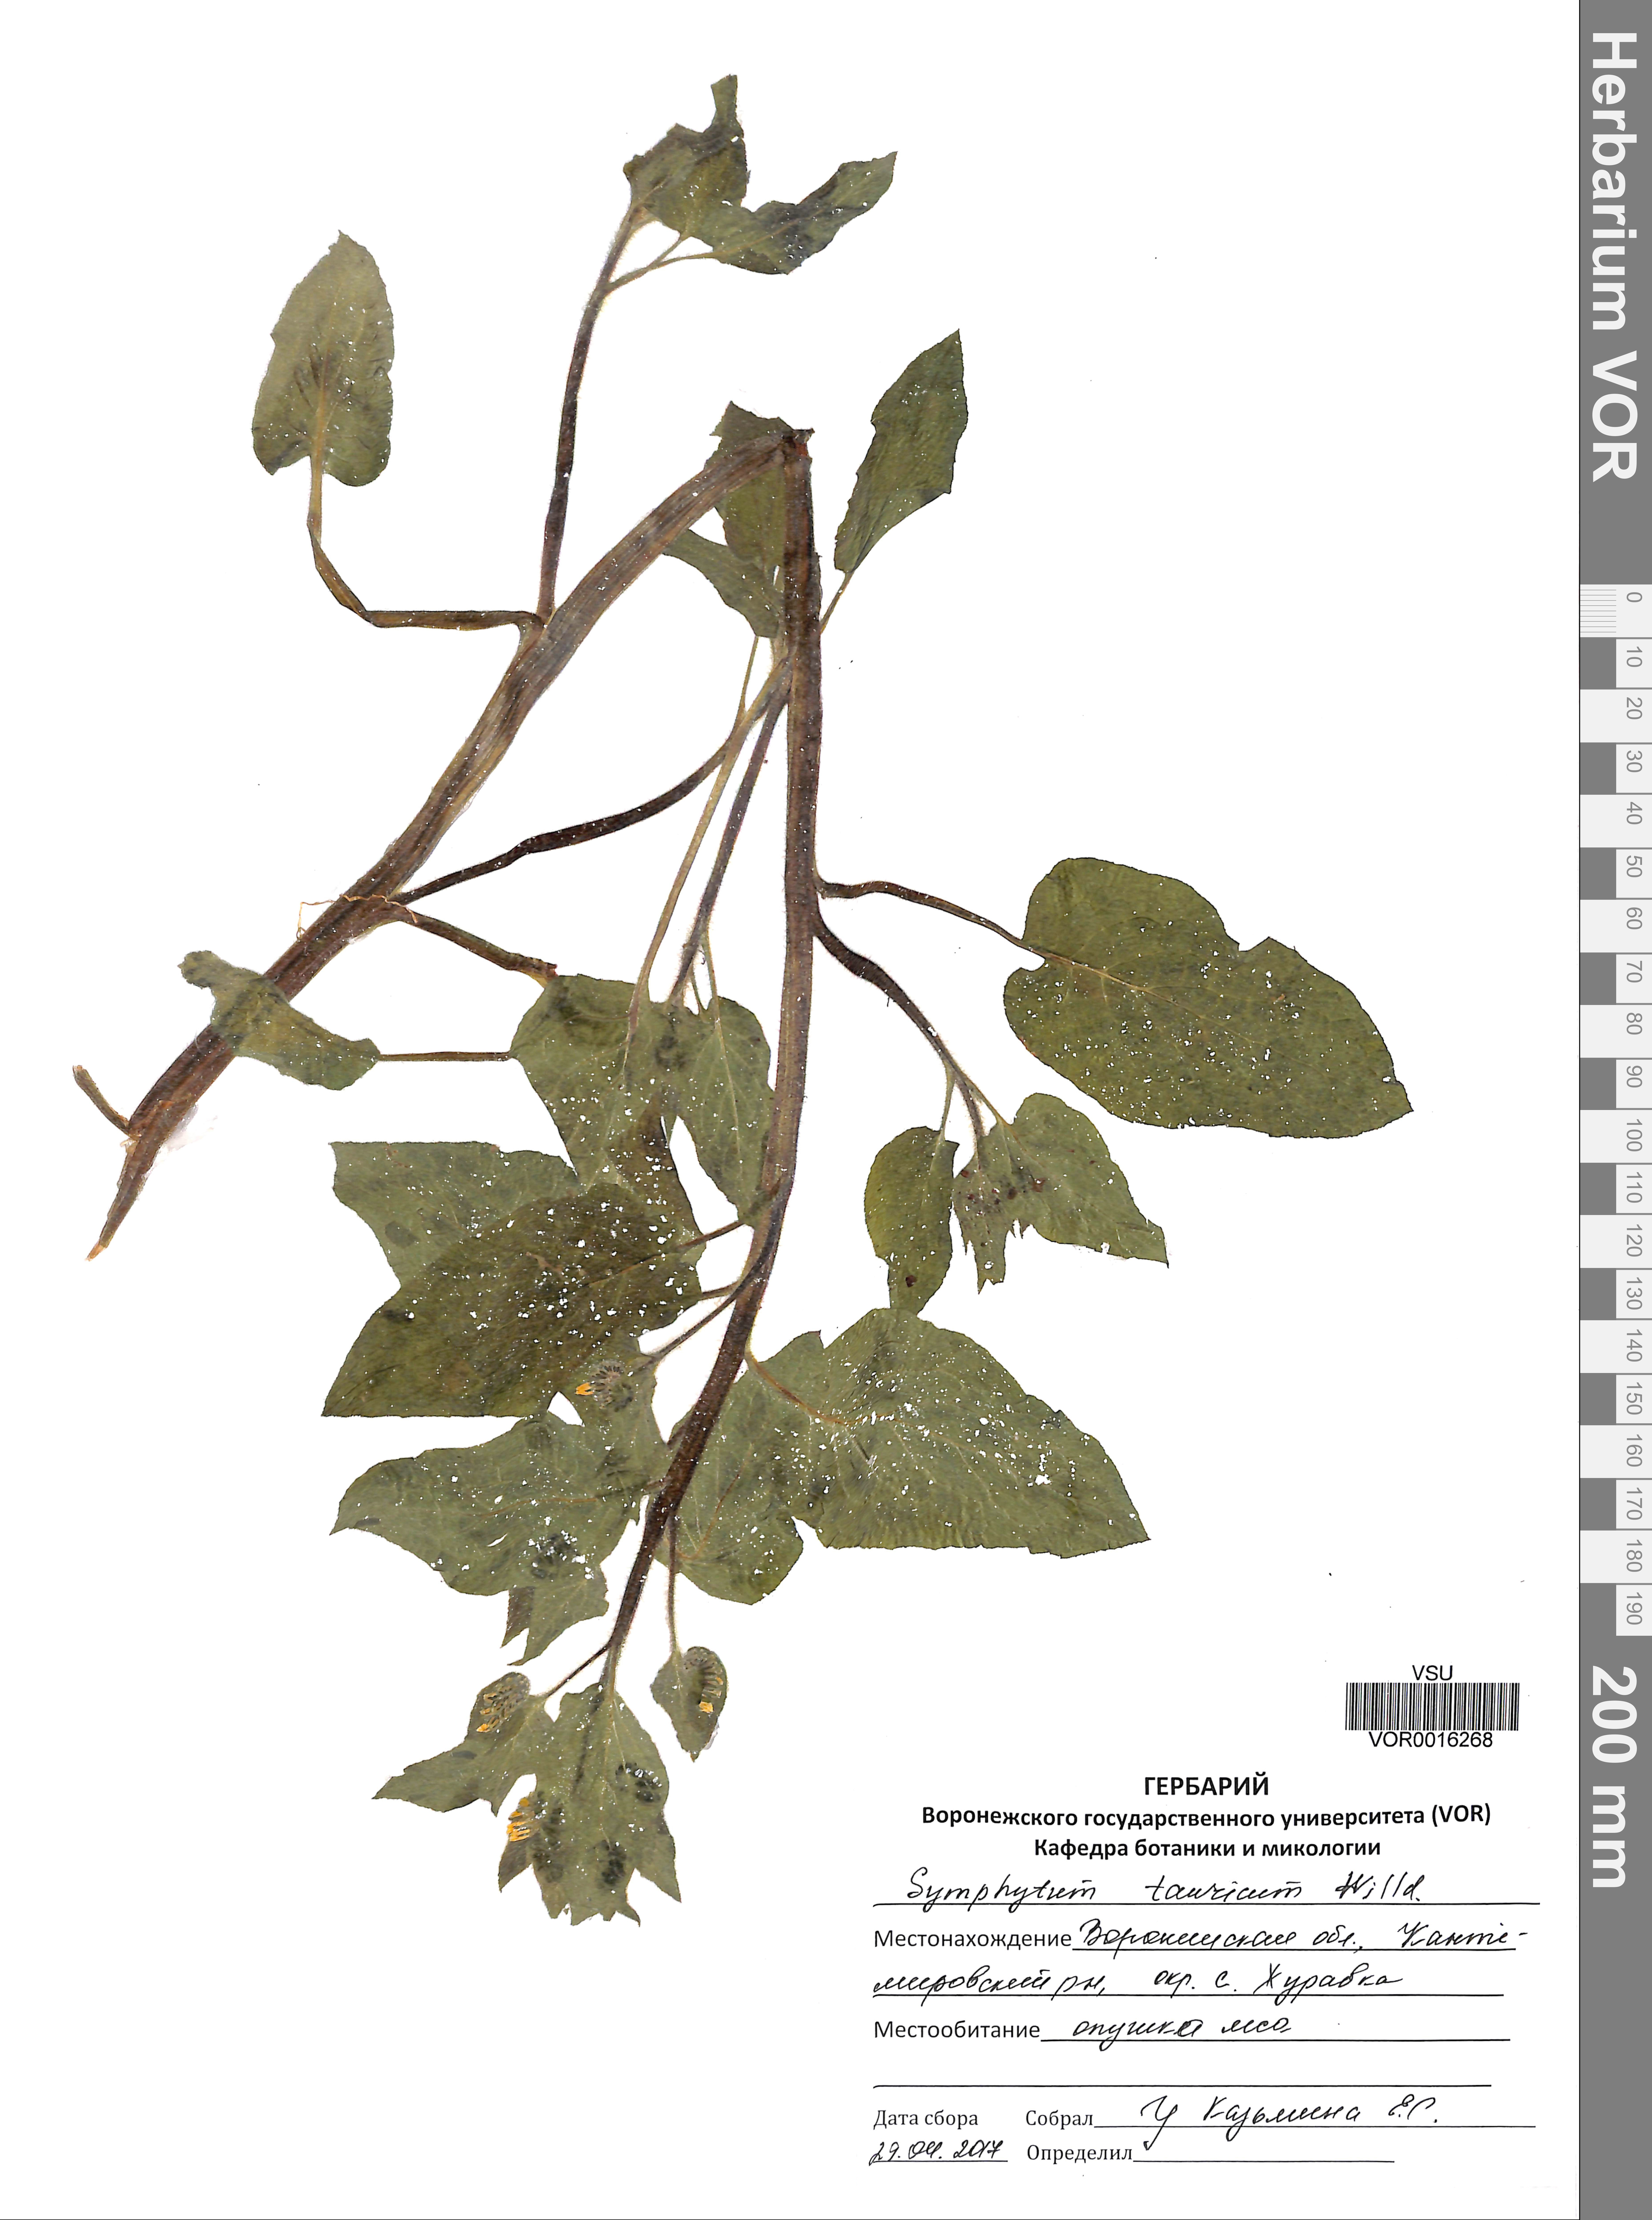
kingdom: Plantae
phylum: Tracheophyta
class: Magnoliopsida
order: Boraginales
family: Boraginaceae
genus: Symphytum
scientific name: Symphytum tauricum
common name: Crimean comfrey
